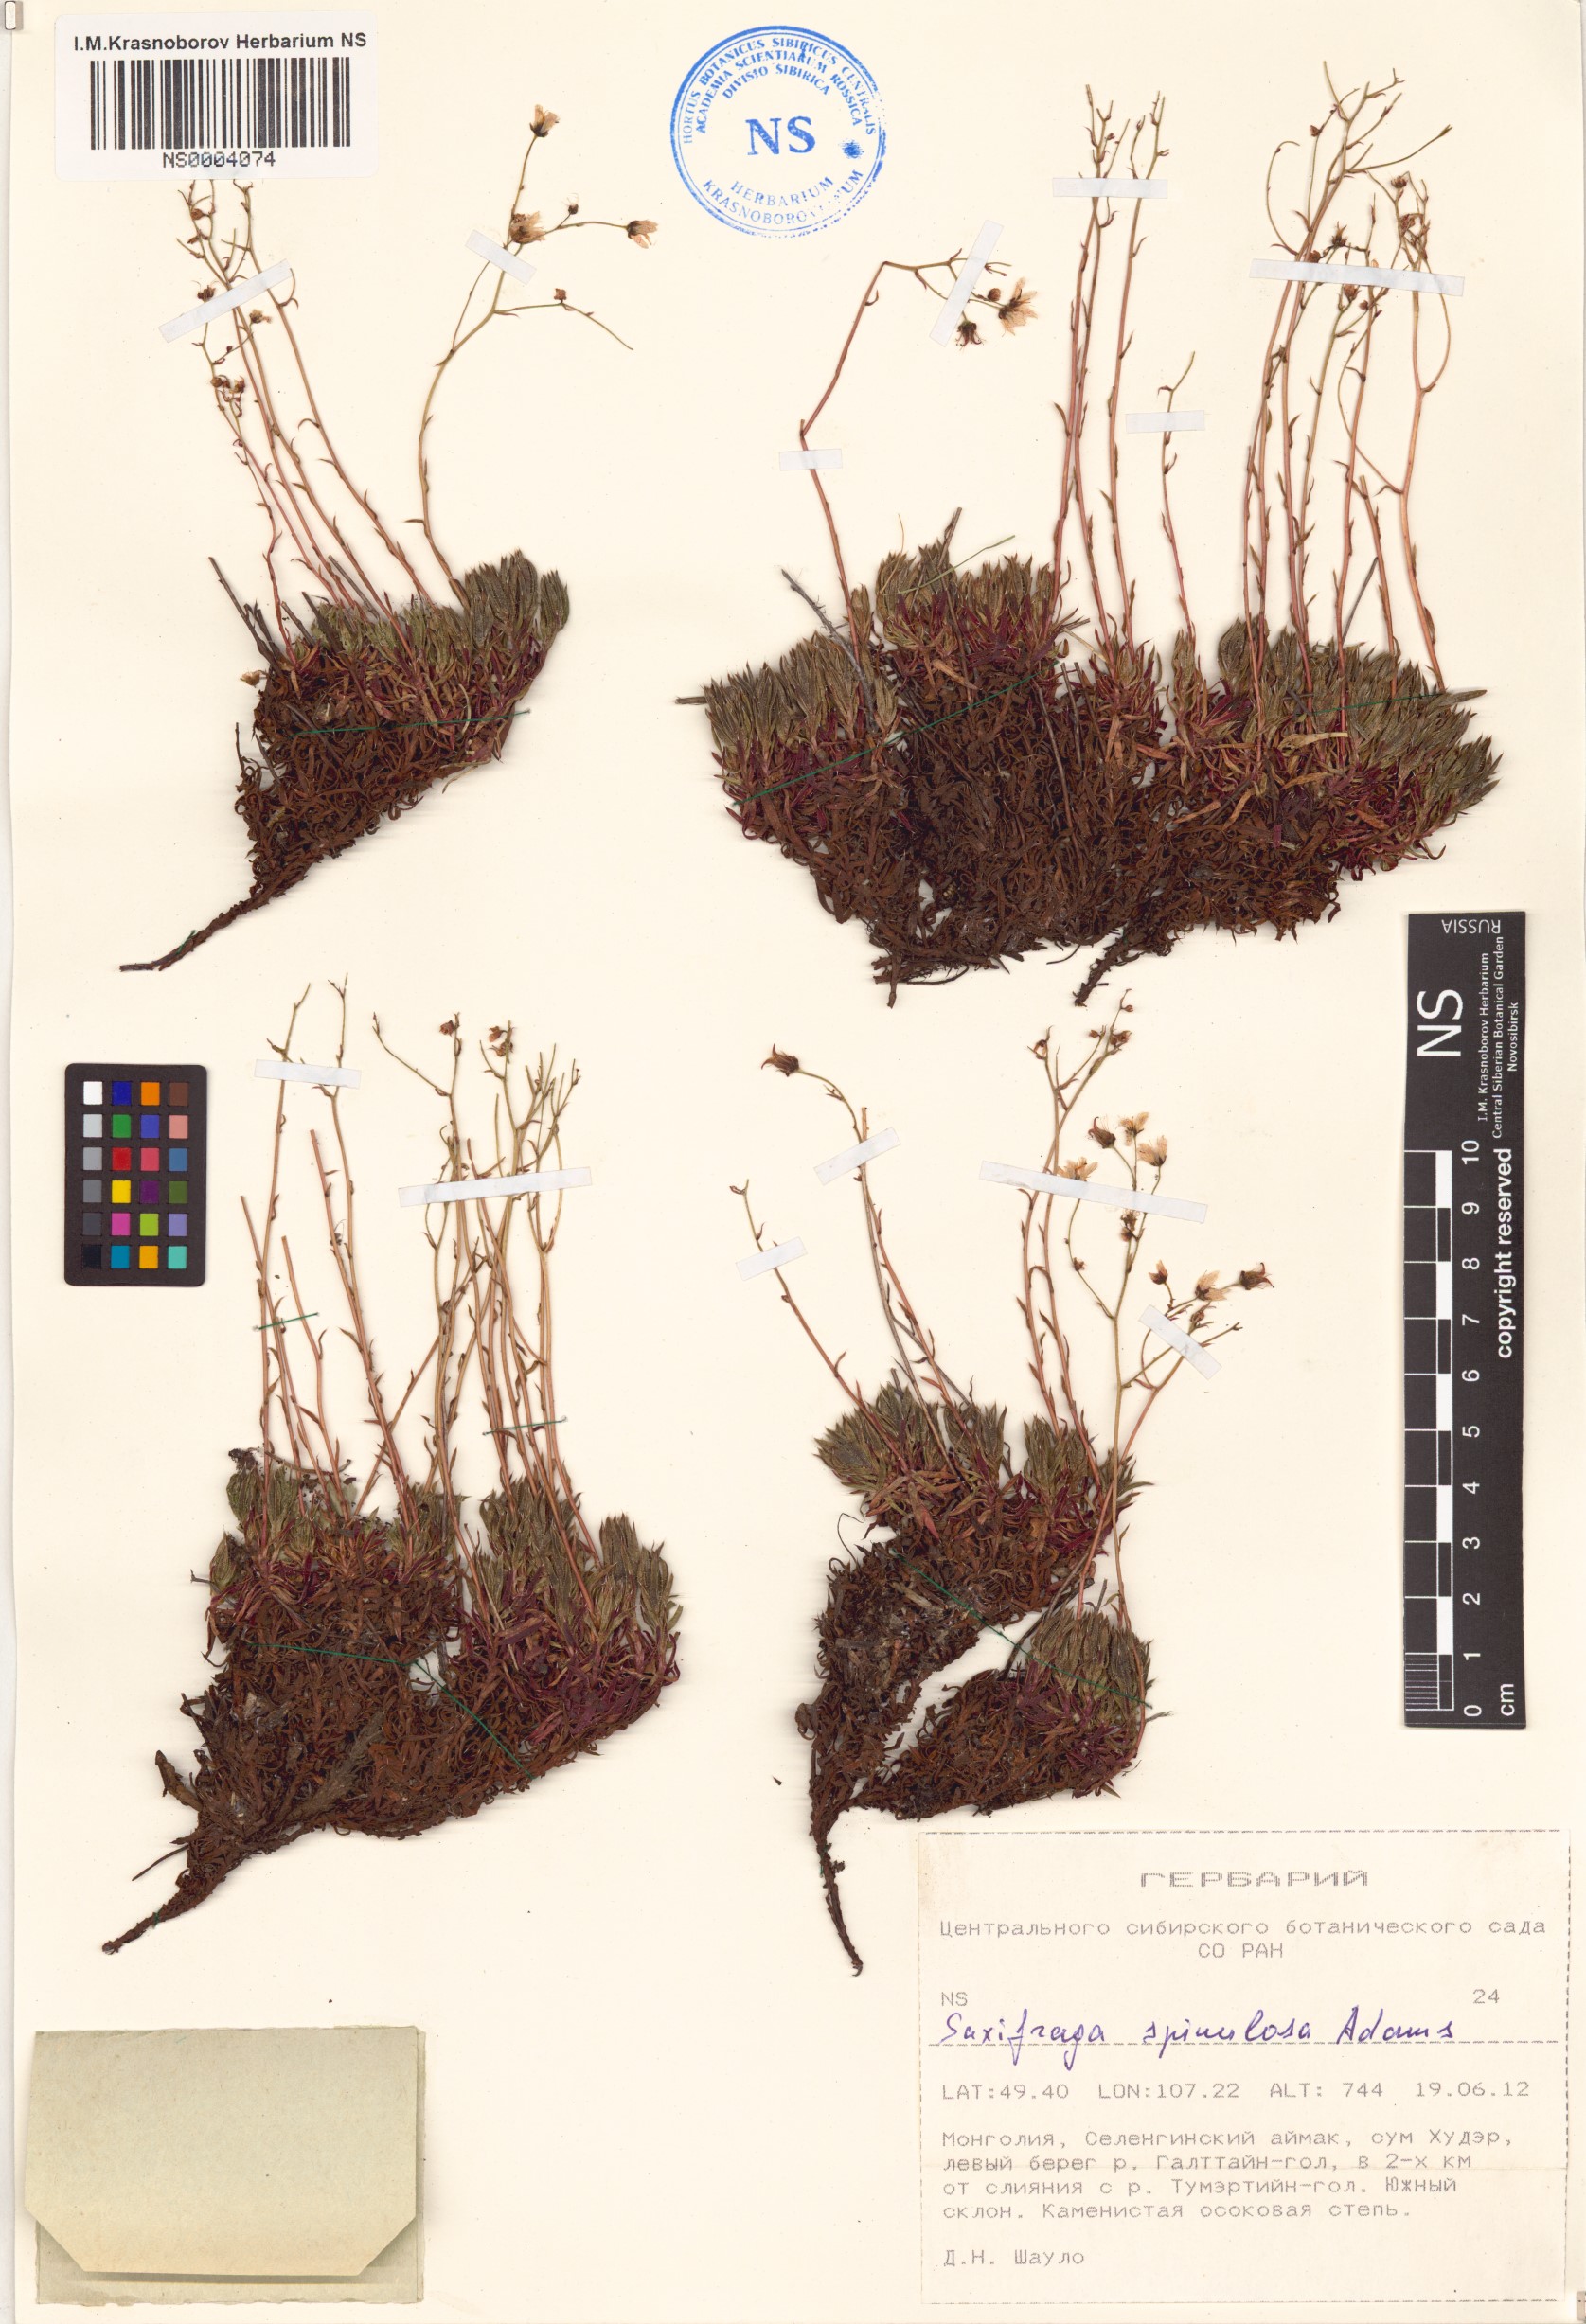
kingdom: Plantae
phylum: Tracheophyta
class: Magnoliopsida
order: Saxifragales
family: Saxifragaceae
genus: Saxifraga
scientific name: Saxifraga bronchialis
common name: Matted saxifrage
